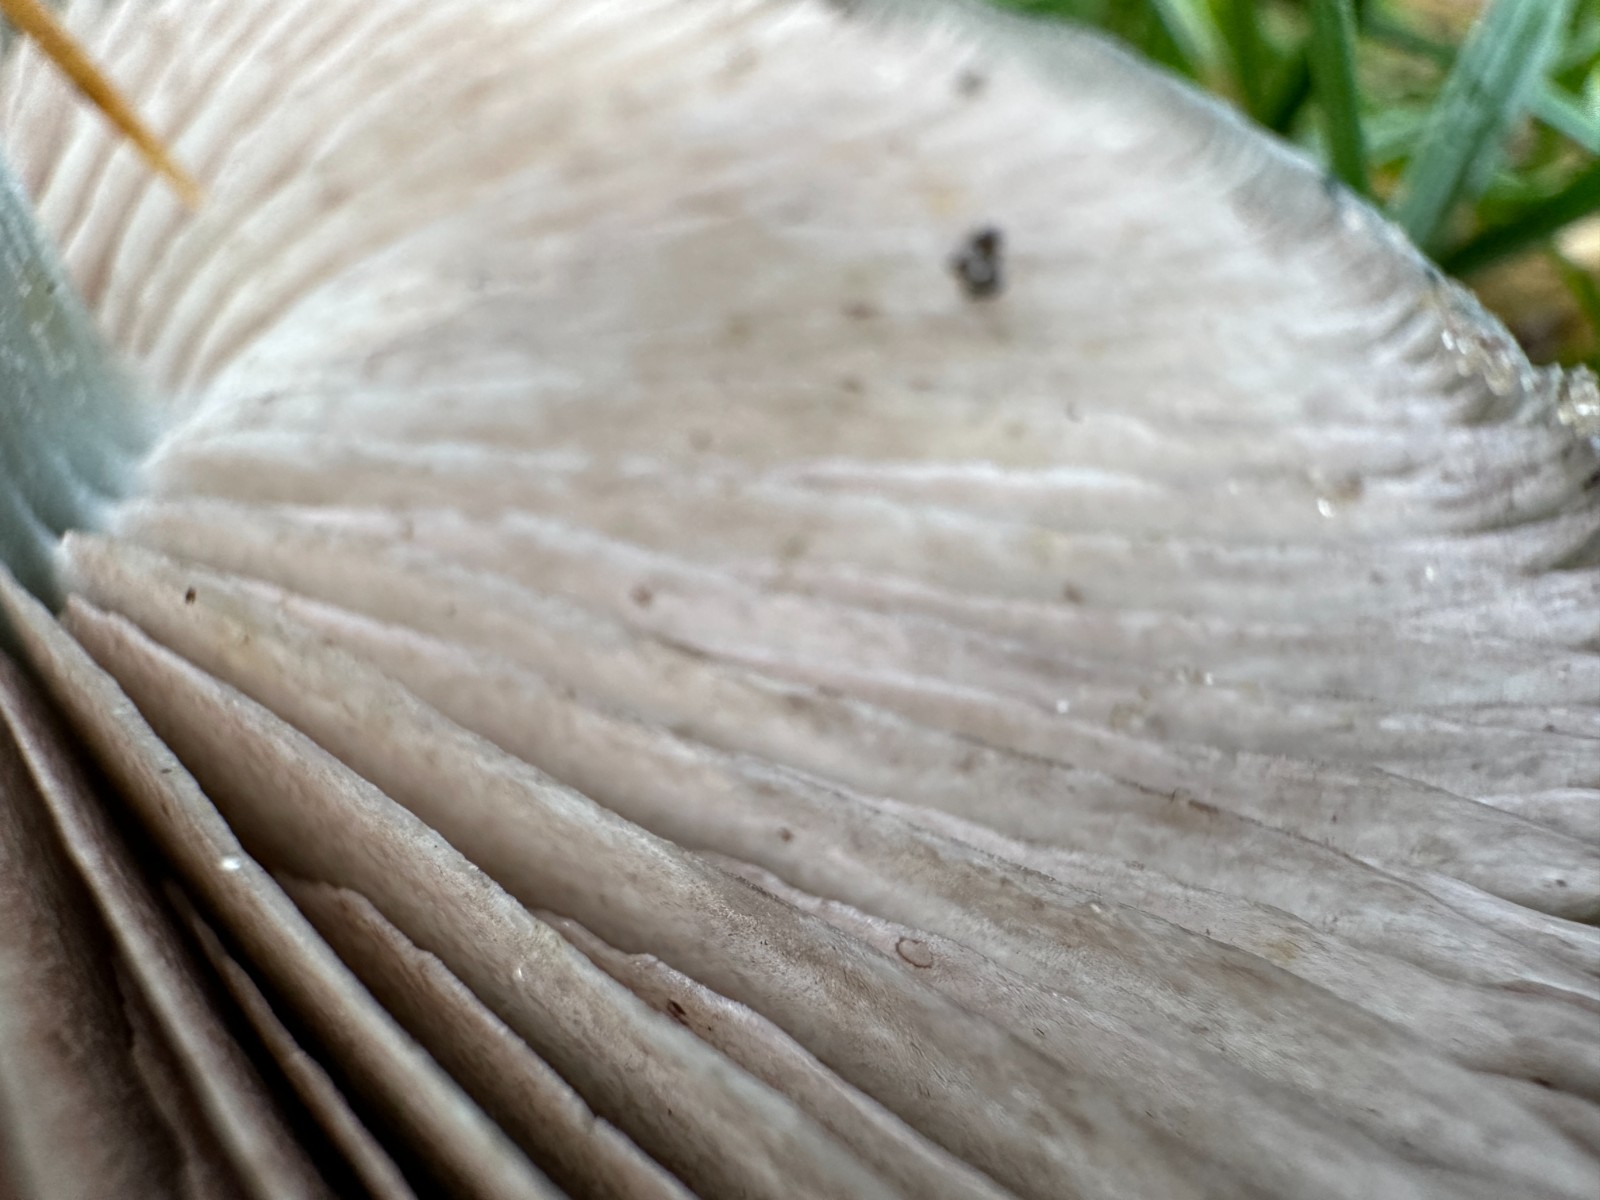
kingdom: Fungi
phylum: Basidiomycota
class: Agaricomycetes
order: Agaricales
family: Strophariaceae
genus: Stropharia
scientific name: Stropharia cyanea
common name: blågrøn bredblad
